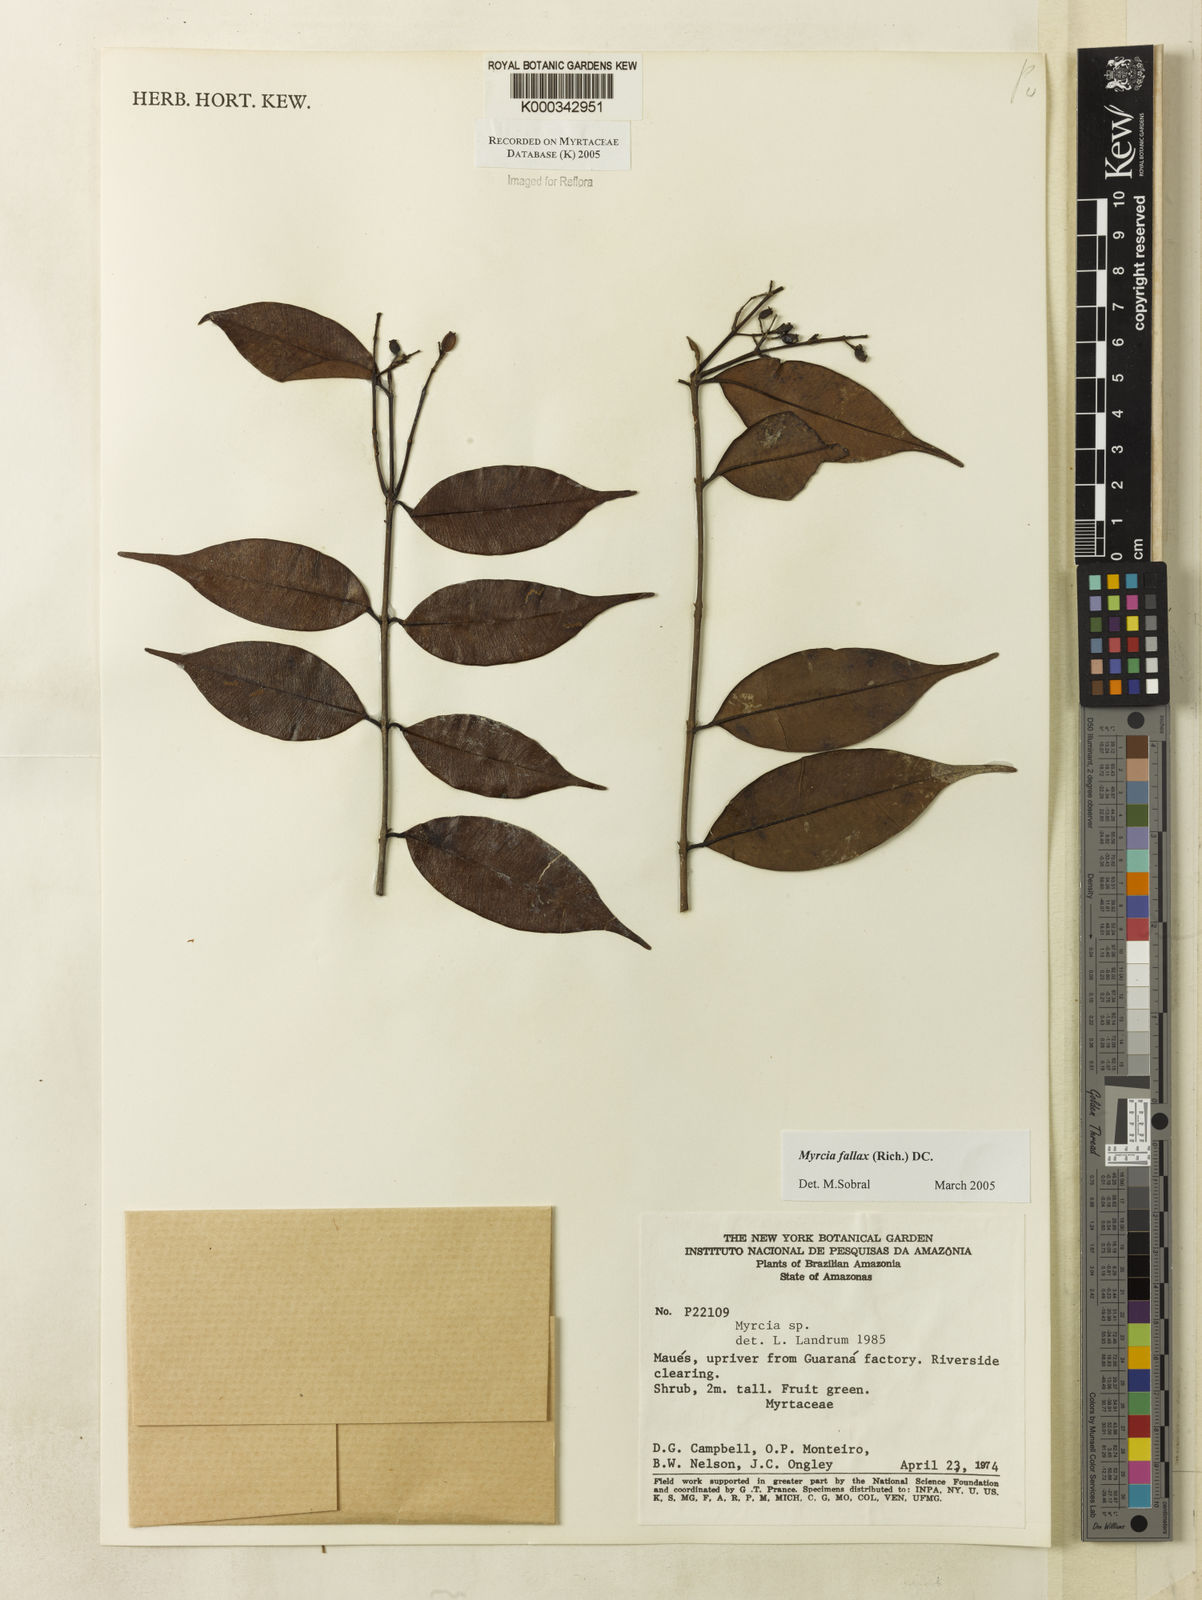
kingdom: Plantae
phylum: Tracheophyta
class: Magnoliopsida
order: Myrtales
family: Myrtaceae
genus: Myrcia
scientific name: Myrcia splendens
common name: Surinam cherry
